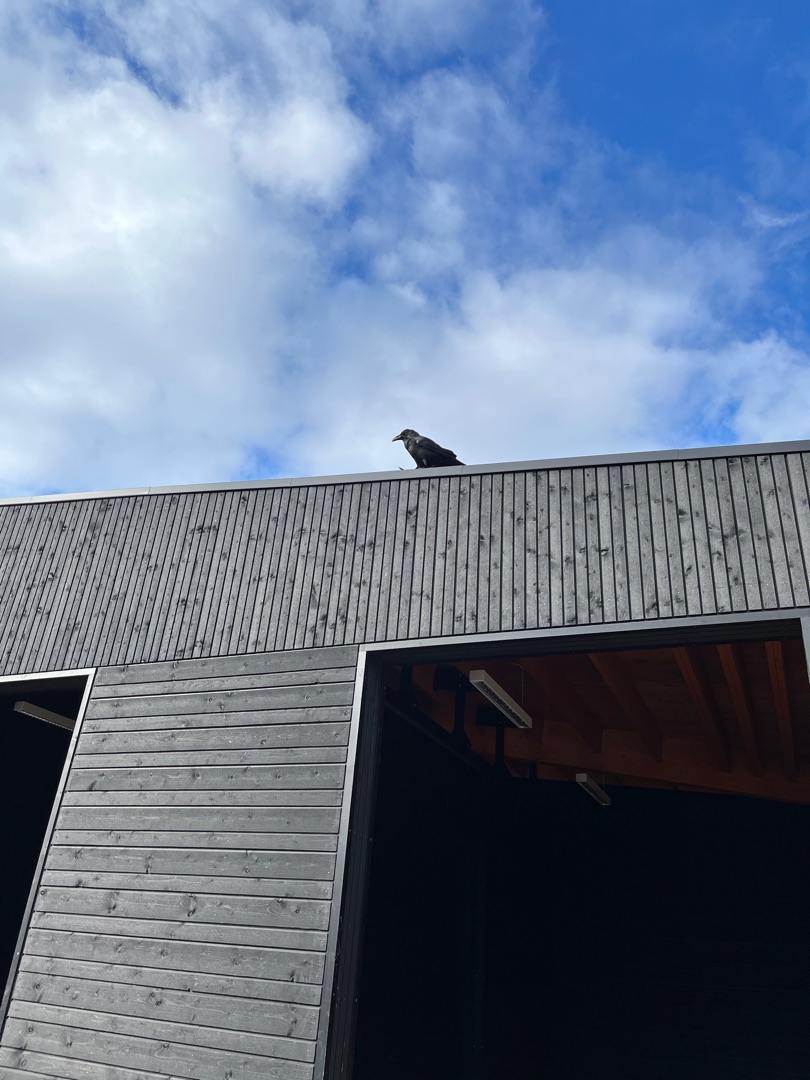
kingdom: Animalia
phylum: Chordata
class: Aves
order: Passeriformes
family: Corvidae
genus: Corvus
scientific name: Corvus corax
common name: Ravn
